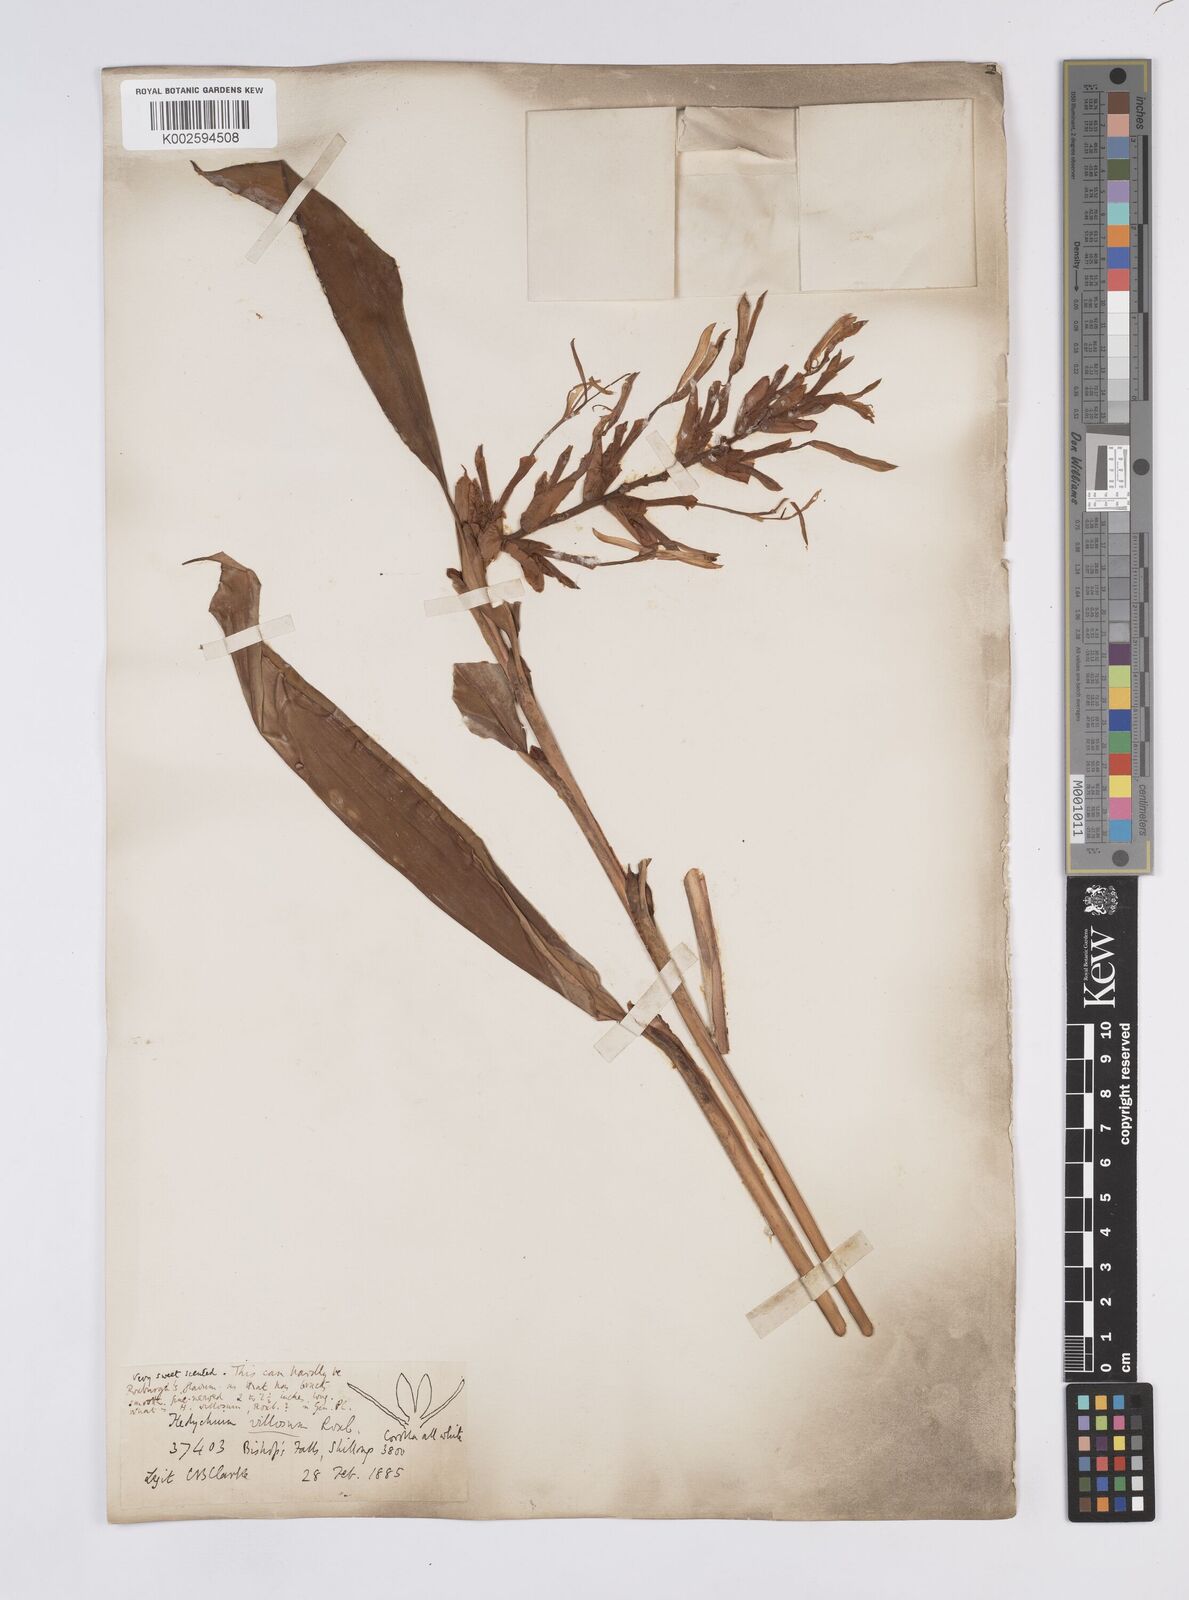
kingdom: Plantae
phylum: Tracheophyta
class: Liliopsida
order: Zingiberales
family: Zingiberaceae
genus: Hedychium
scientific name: Hedychium villosum
